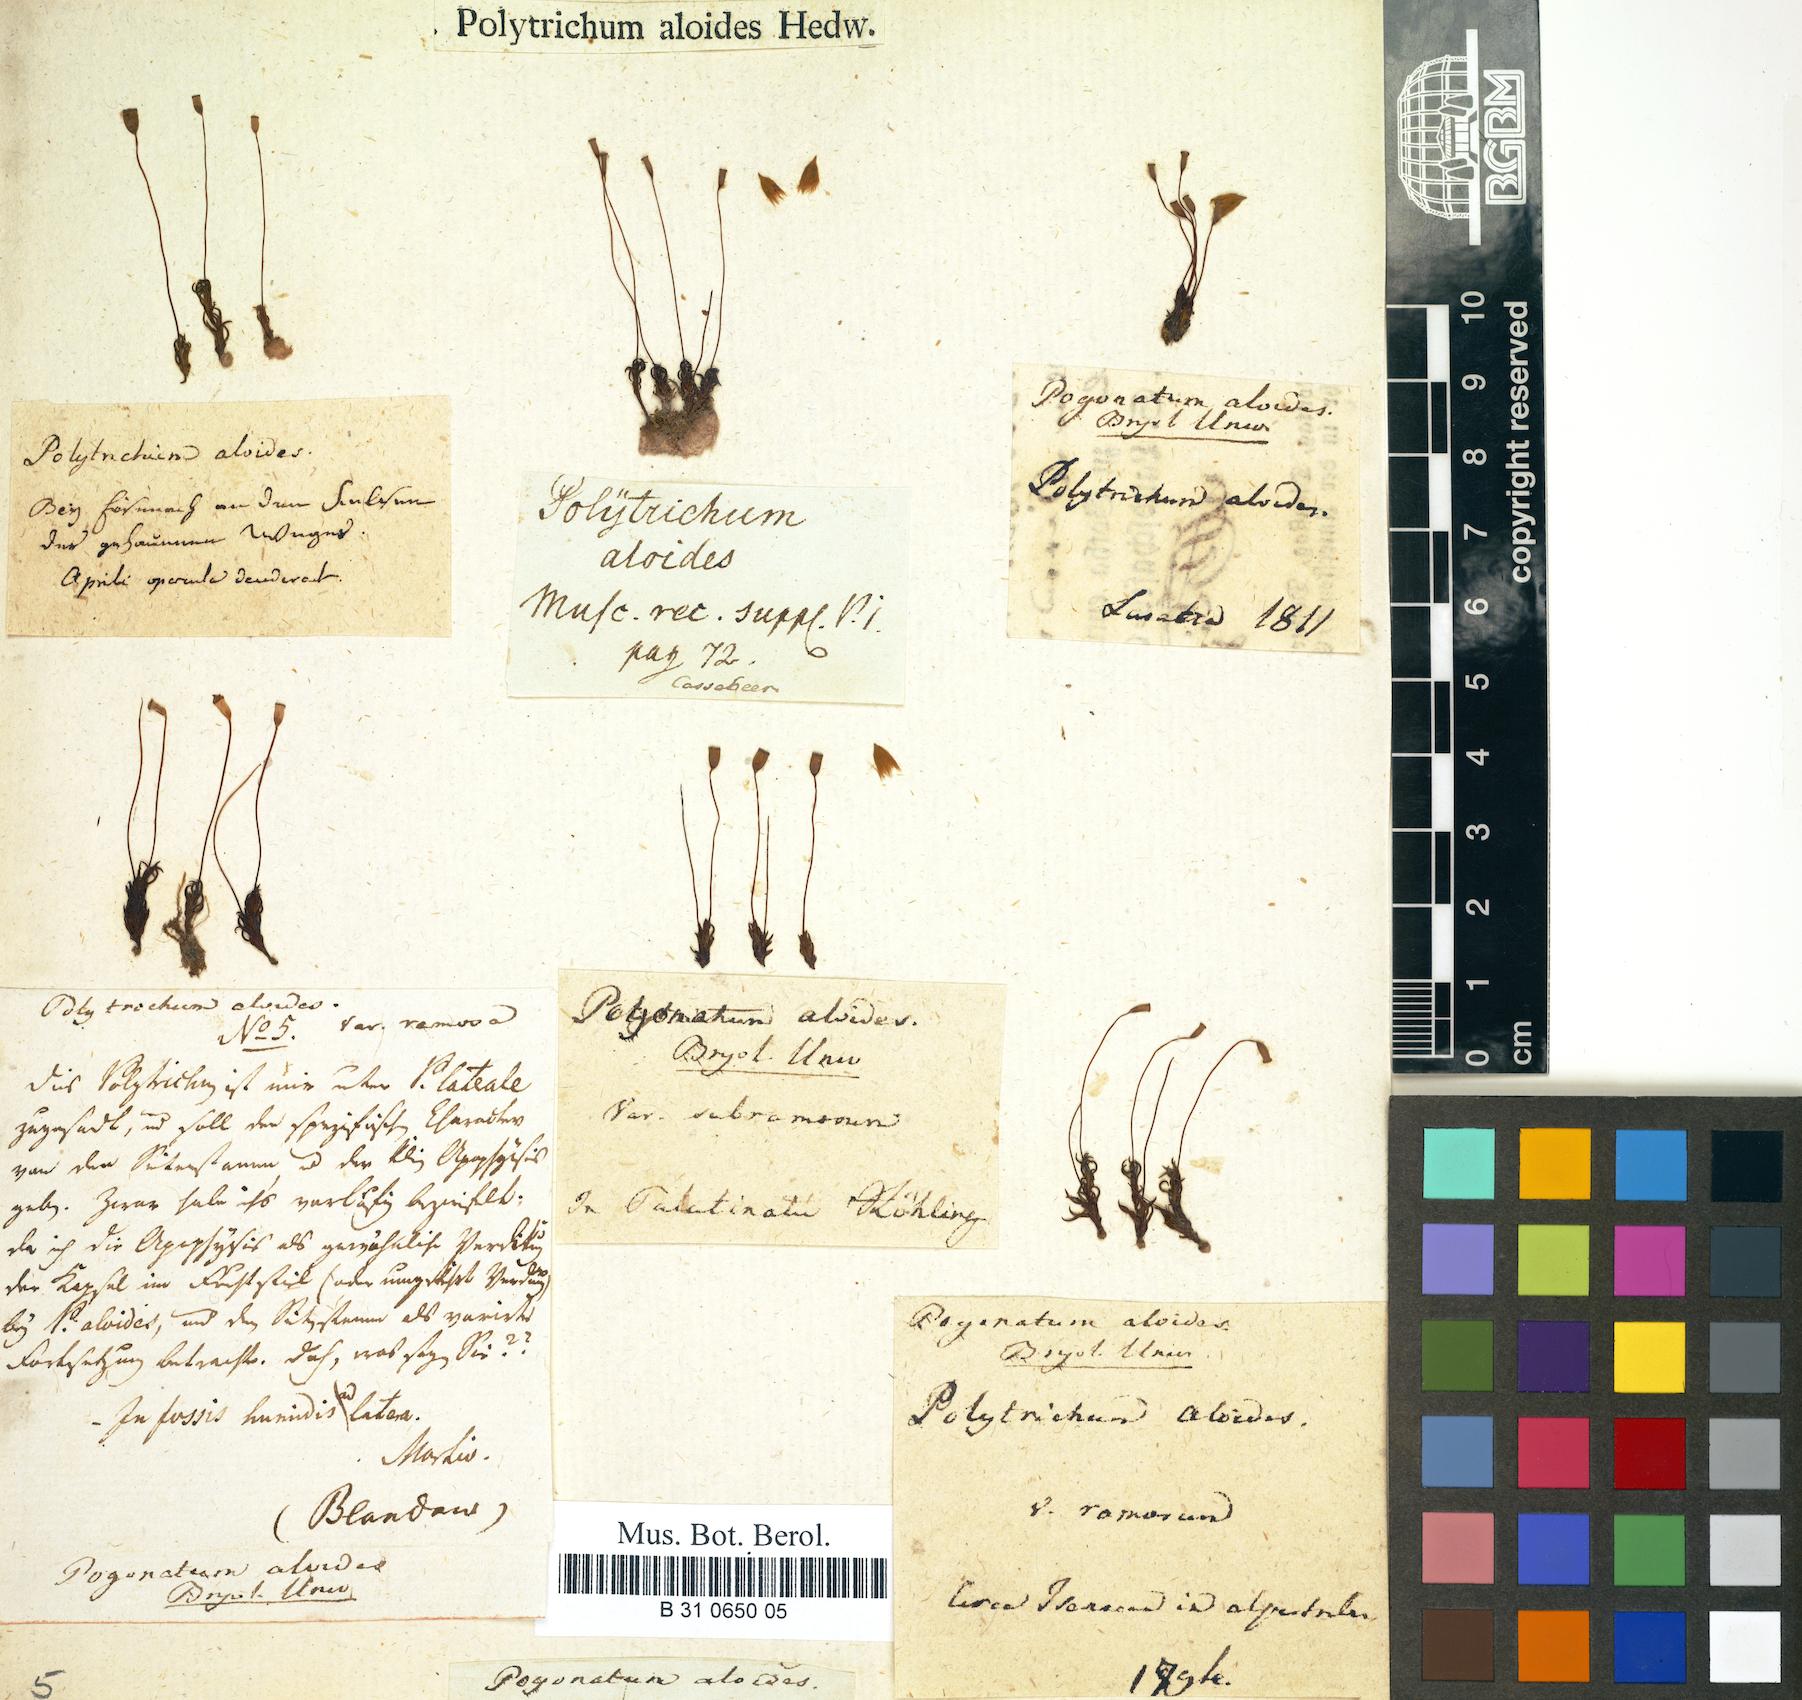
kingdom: Plantae
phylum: Bryophyta
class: Polytrichopsida
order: Polytrichales
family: Polytrichaceae
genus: Pogonatum
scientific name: Pogonatum aloides
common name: Aloe haircap
